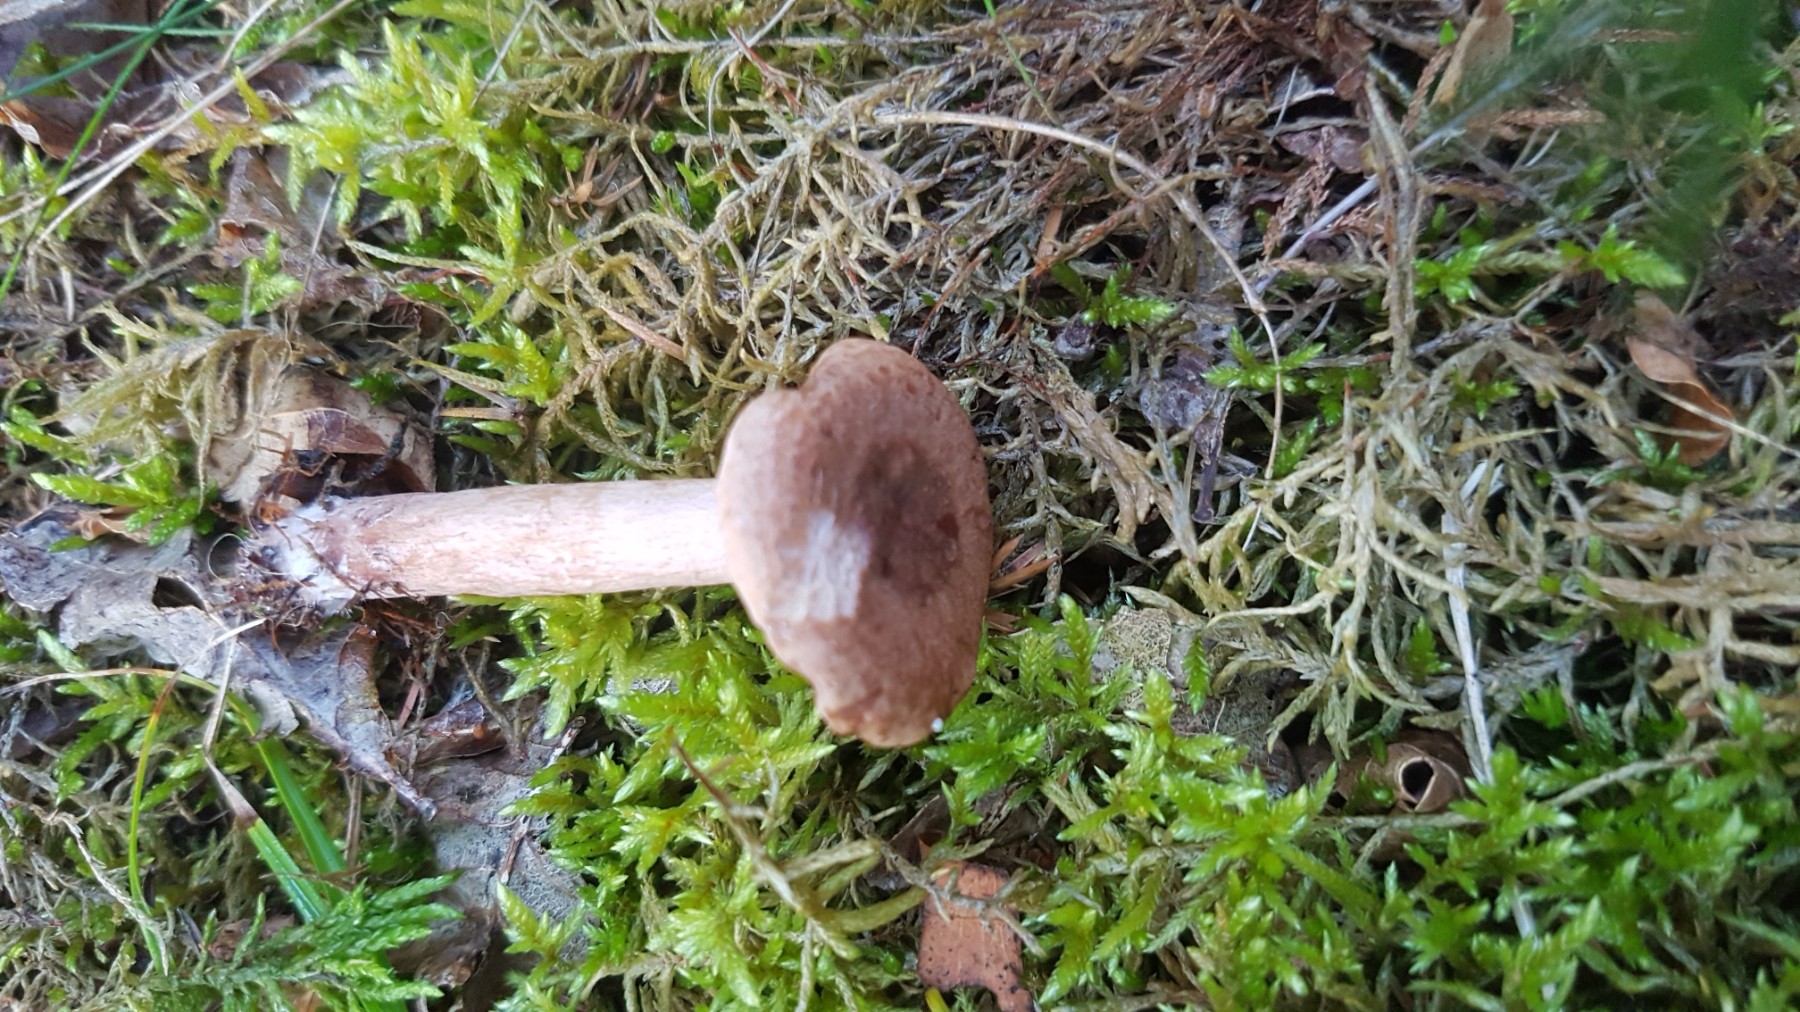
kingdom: Fungi
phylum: Basidiomycota
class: Agaricomycetes
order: Russulales
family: Russulaceae
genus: Lactarius
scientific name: Lactarius quietus
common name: ege-mælkehat
